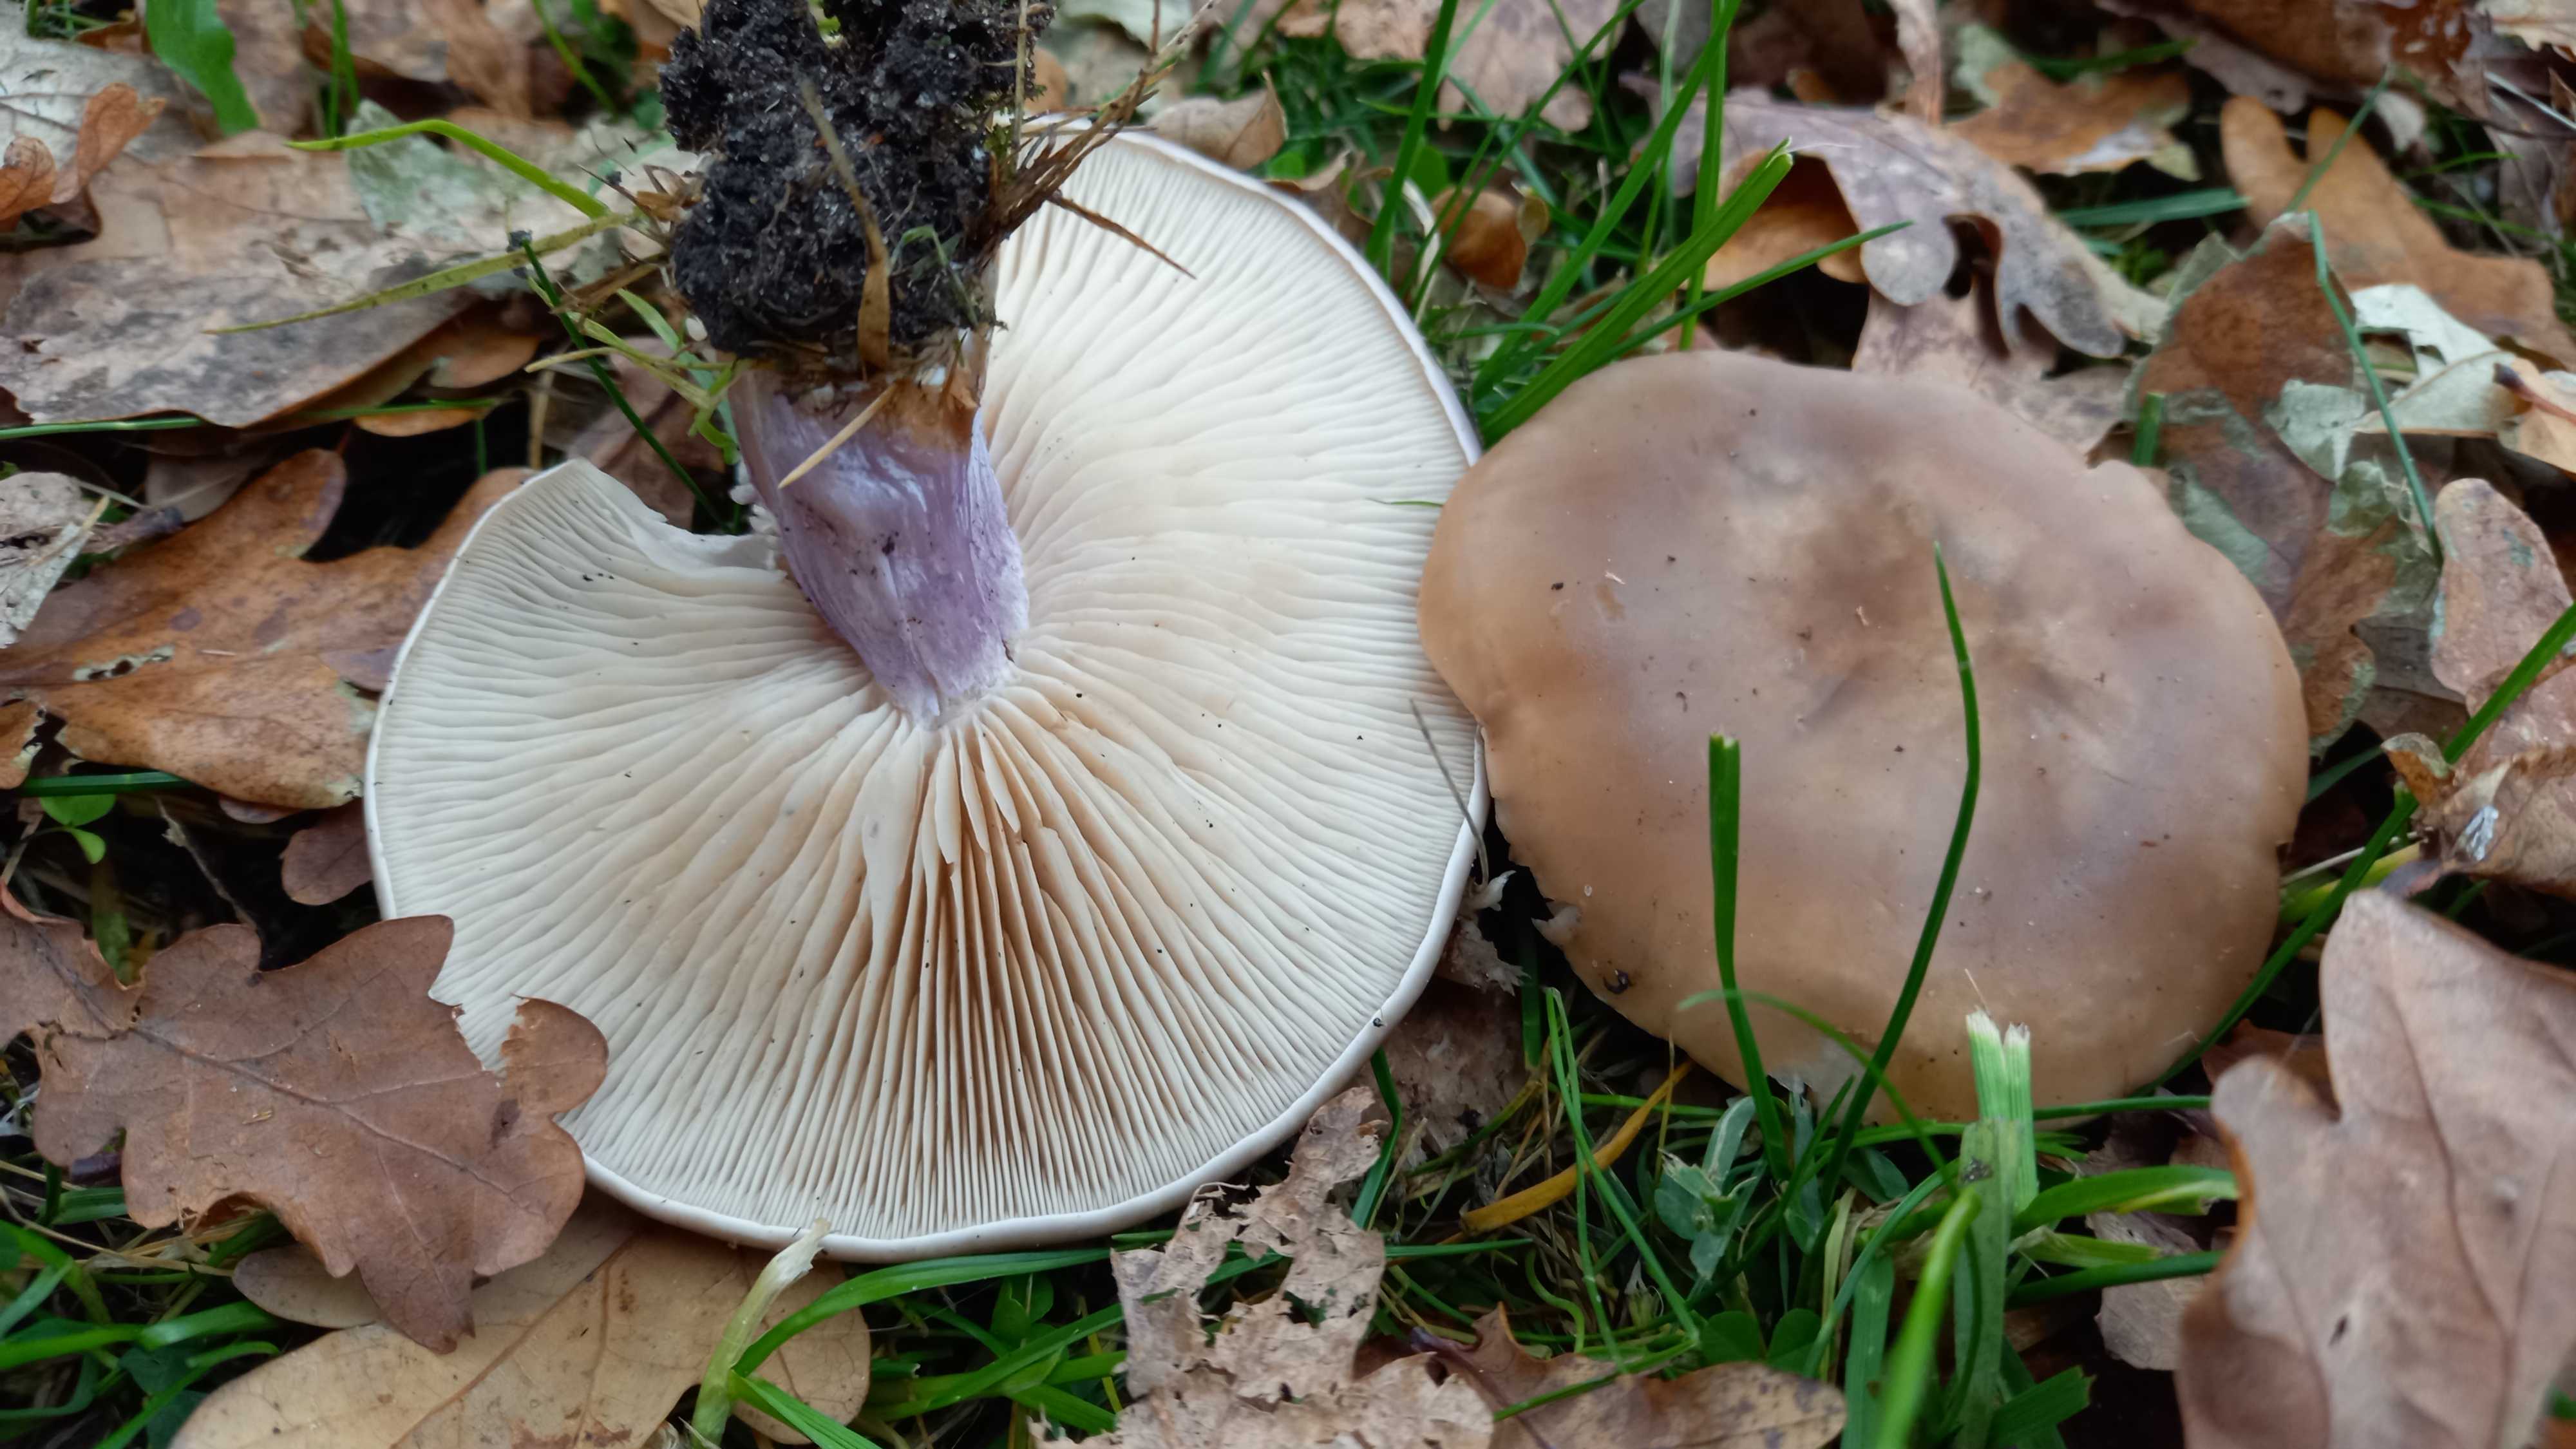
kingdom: Fungi
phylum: Basidiomycota
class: Agaricomycetes
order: Agaricales
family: Tricholomataceae
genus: Lepista
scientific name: Lepista personata
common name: bleg hekseringshat
